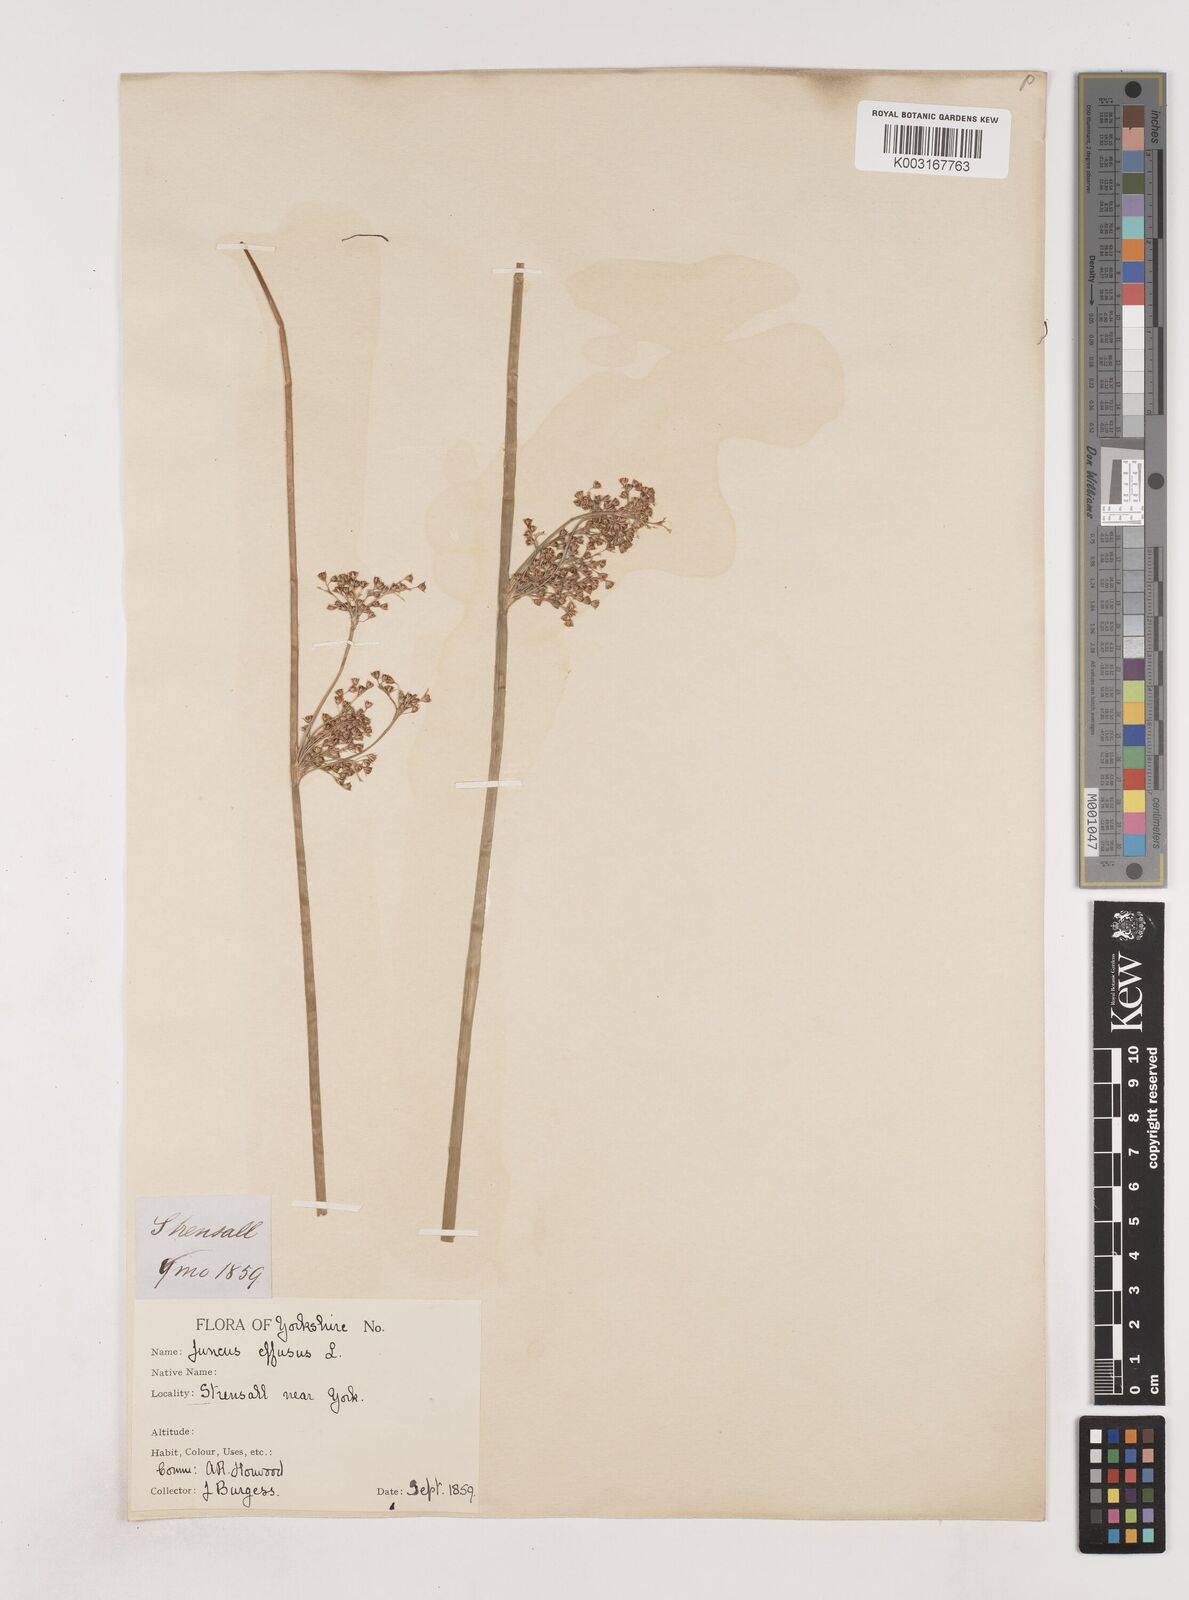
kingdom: Plantae
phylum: Tracheophyta
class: Liliopsida
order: Poales
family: Juncaceae
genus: Juncus
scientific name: Juncus effusus
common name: Soft rush
